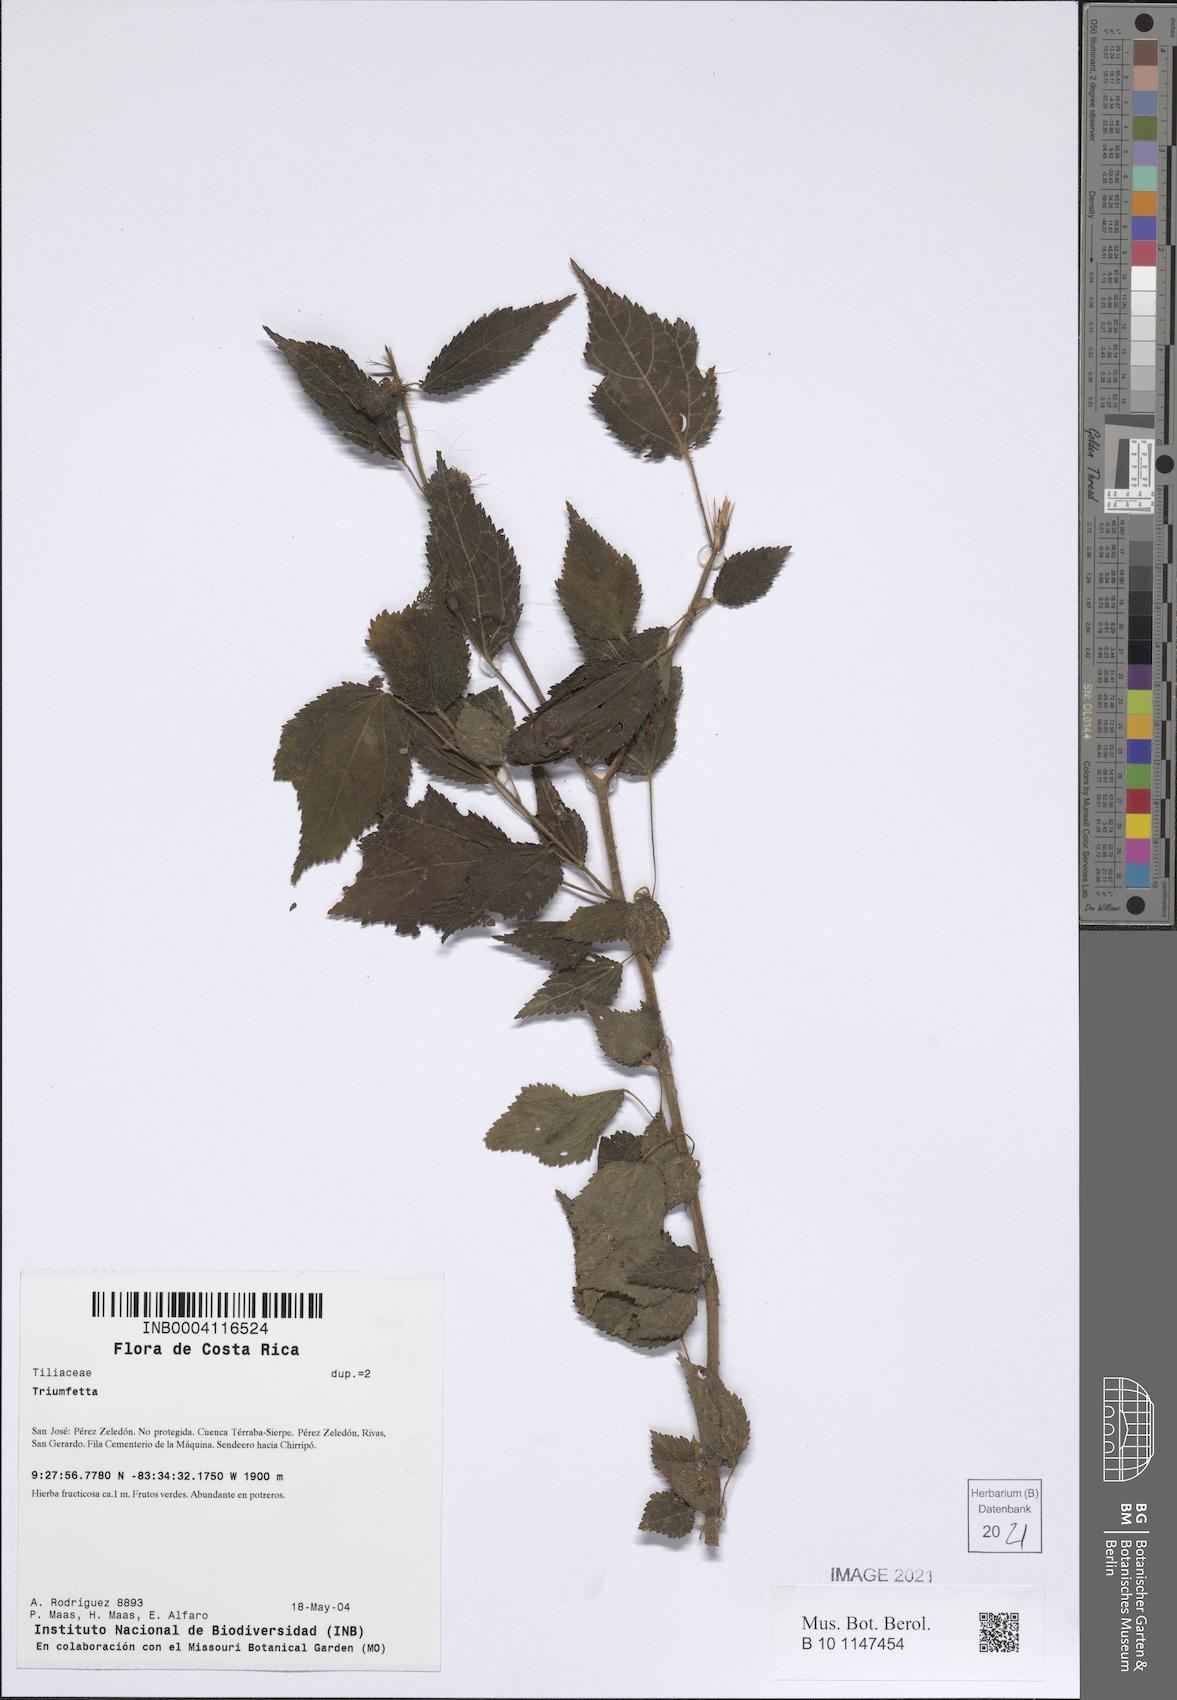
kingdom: Plantae
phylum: Tracheophyta
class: Magnoliopsida
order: Malvales
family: Malvaceae
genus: Triumfetta
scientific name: Triumfetta
